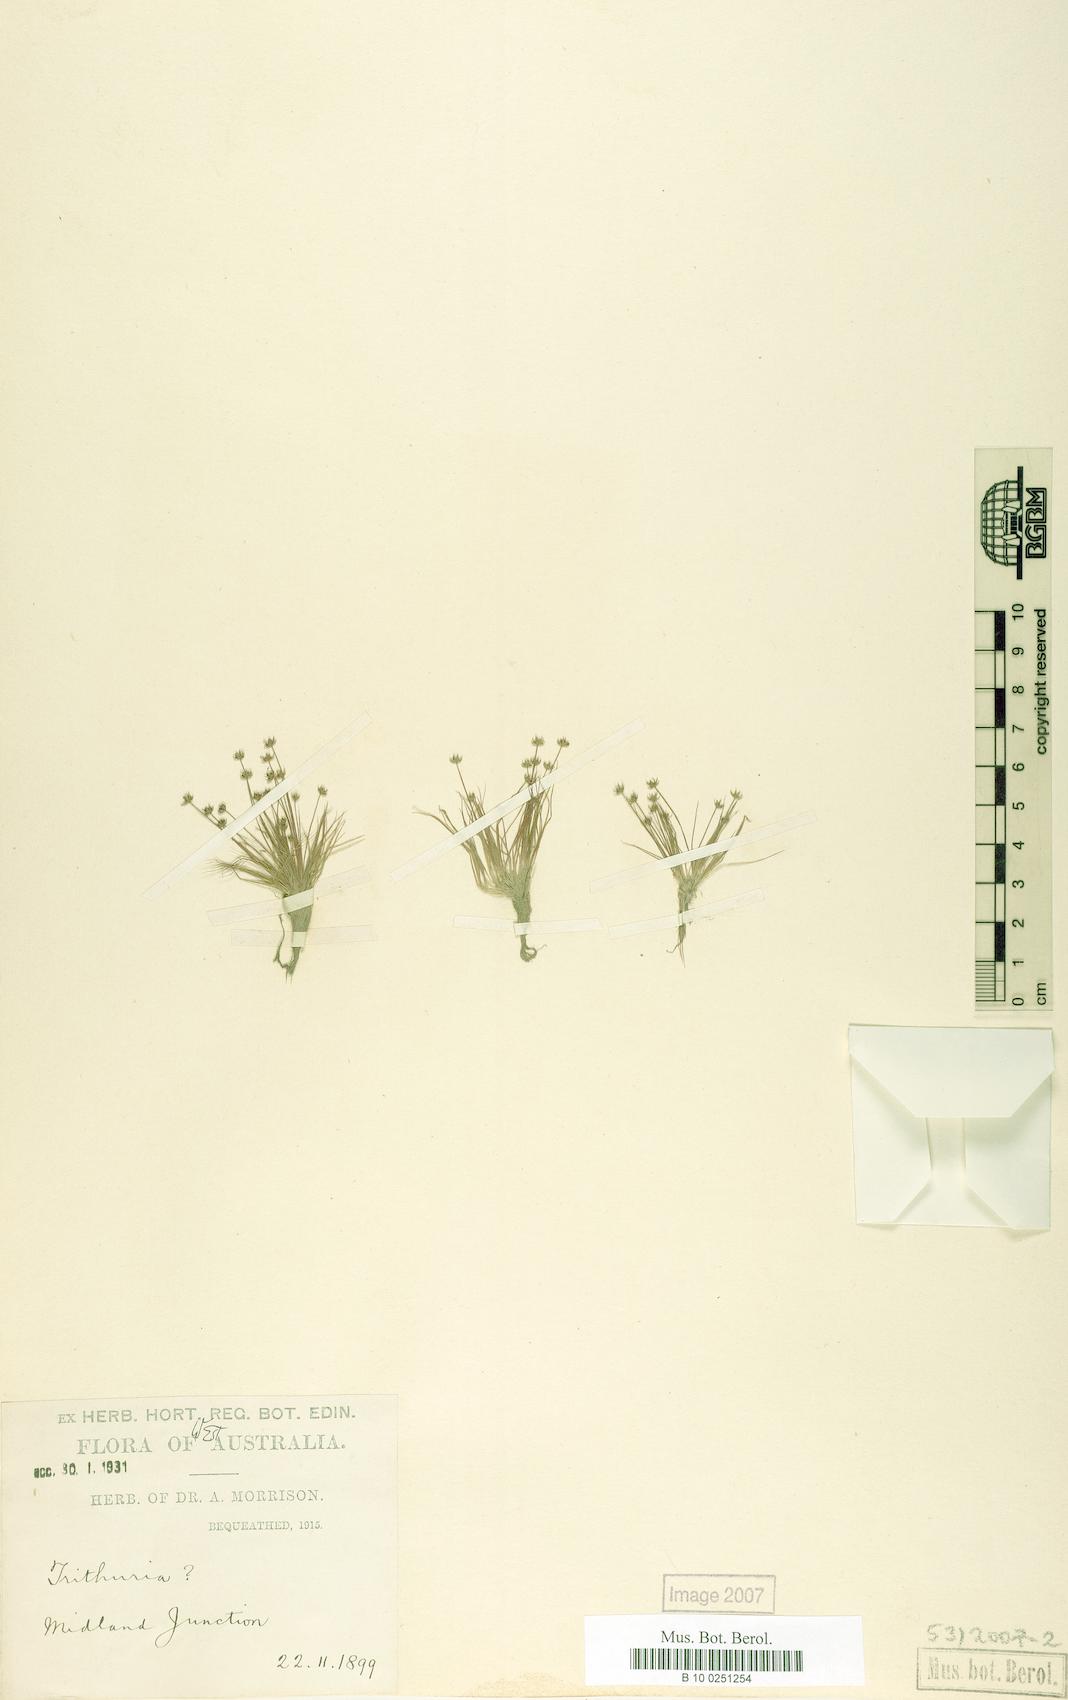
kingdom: Plantae
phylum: Tracheophyta
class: Magnoliopsida
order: Nymphaeales
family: Hydatellaceae
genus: Trithuria
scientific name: Trithuria occidentalis
